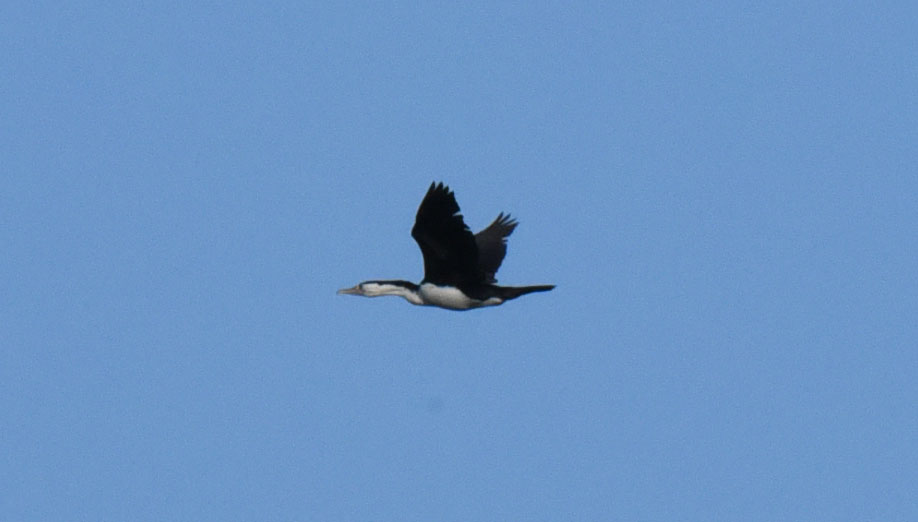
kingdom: Animalia
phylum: Chordata
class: Aves
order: Suliformes
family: Phalacrocoracidae
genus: Phalacrocorax
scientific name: Phalacrocorax varius
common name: Pied cormorant
